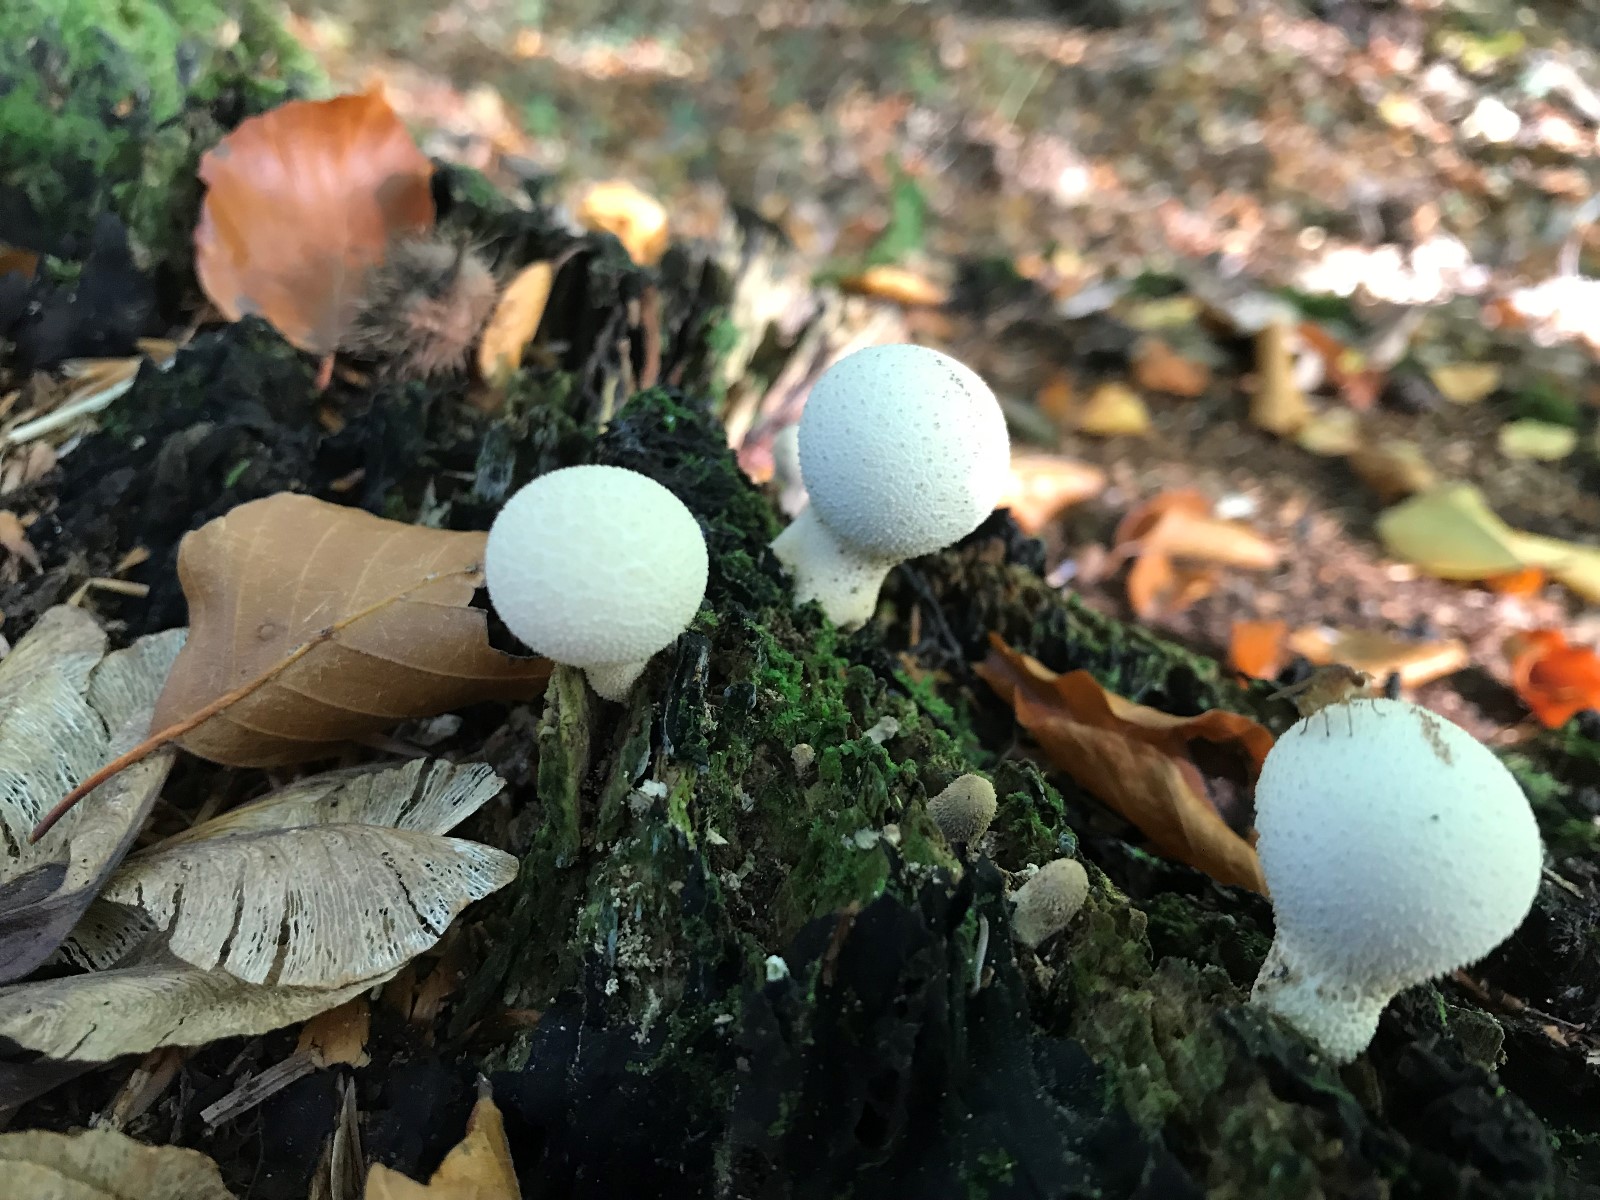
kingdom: Fungi
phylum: Basidiomycota
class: Agaricomycetes
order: Agaricales
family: Lycoperdaceae
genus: Apioperdon
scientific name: Apioperdon pyriforme
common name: pære-støvbold
